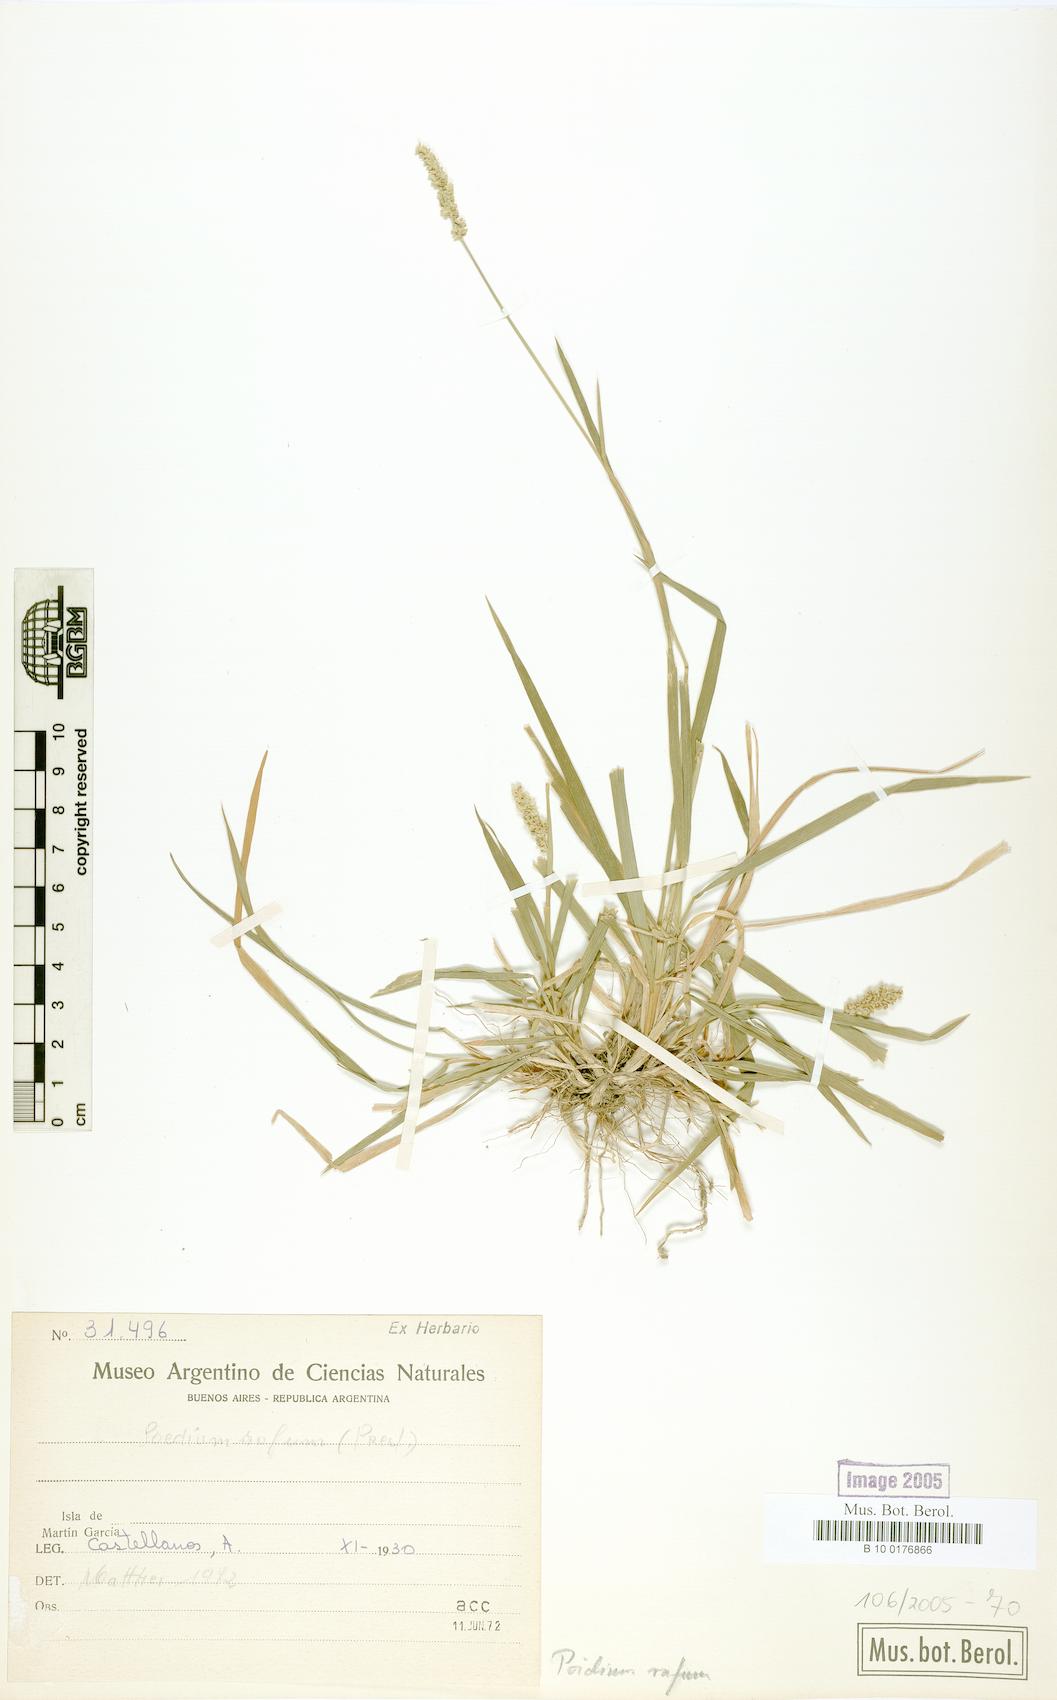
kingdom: Plantae
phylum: Tracheophyta
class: Liliopsida
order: Poales
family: Poaceae
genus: Lombardochloa
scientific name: Lombardochloa rufa
